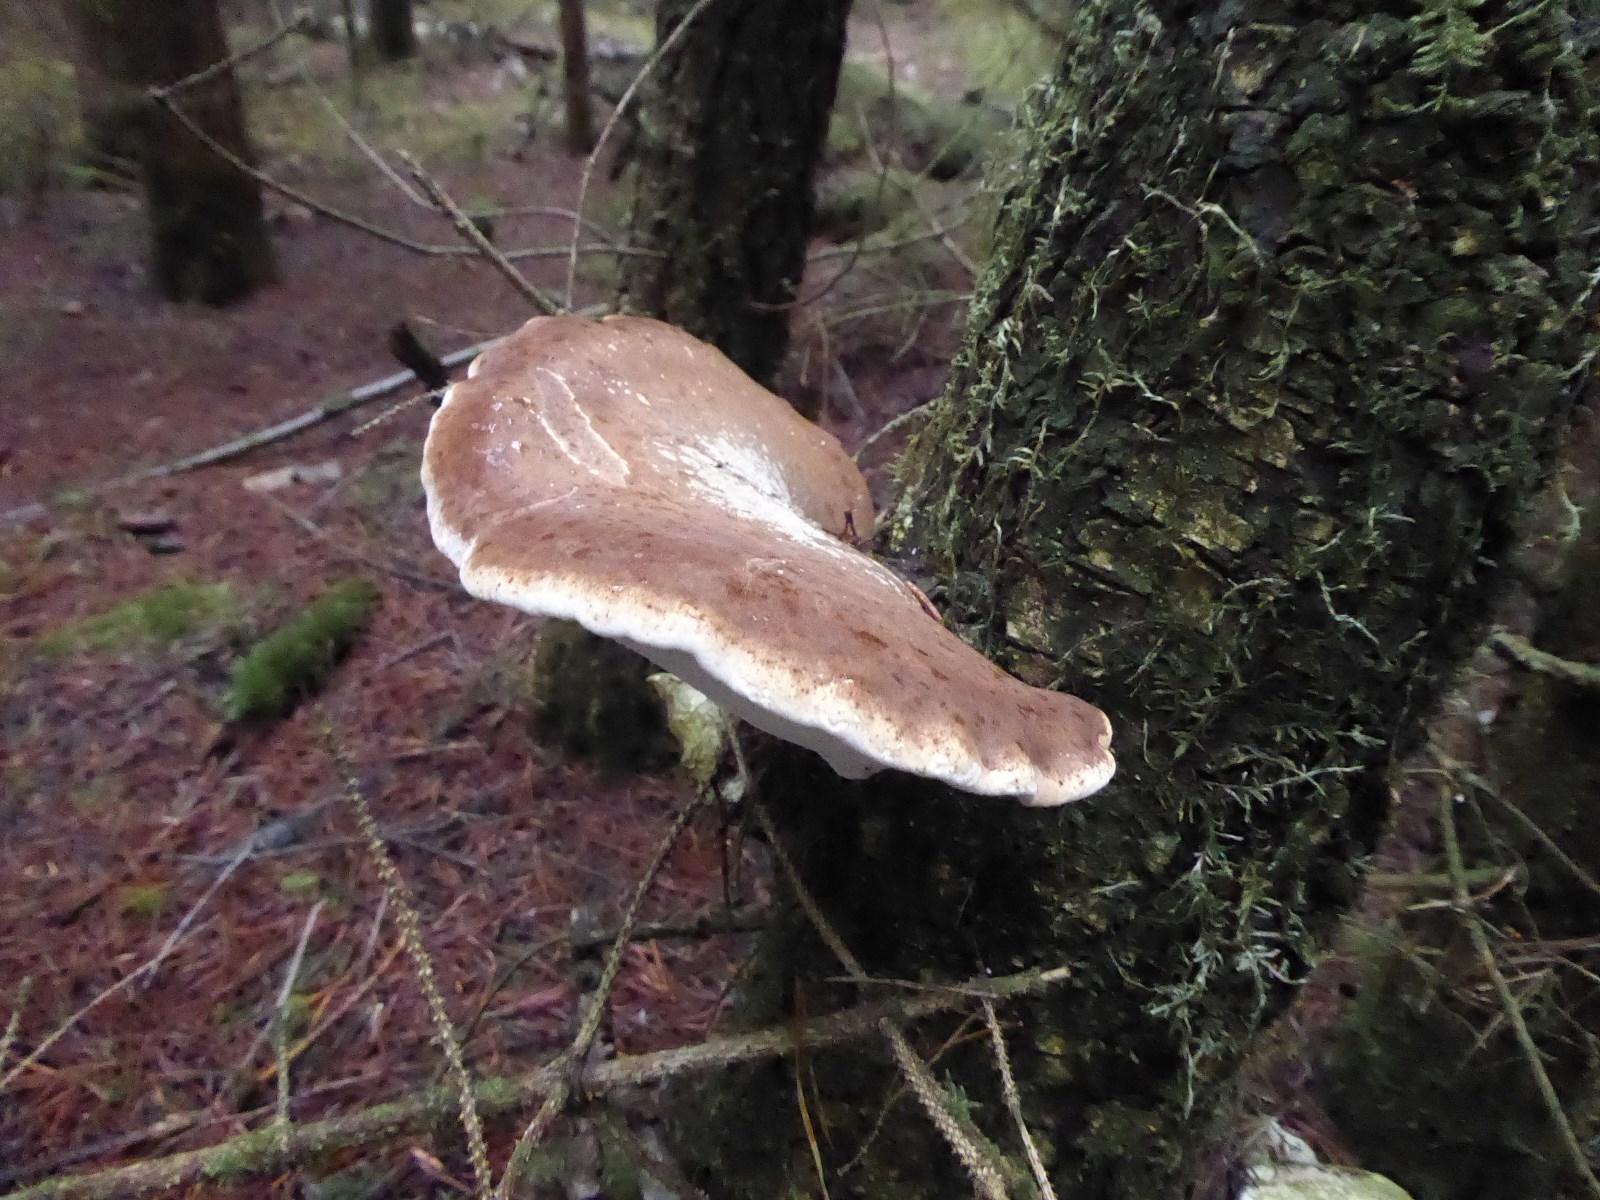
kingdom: Fungi
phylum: Basidiomycota
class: Agaricomycetes
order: Polyporales
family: Fomitopsidaceae
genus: Fomitopsis
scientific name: Fomitopsis betulina
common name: birkeporesvamp
